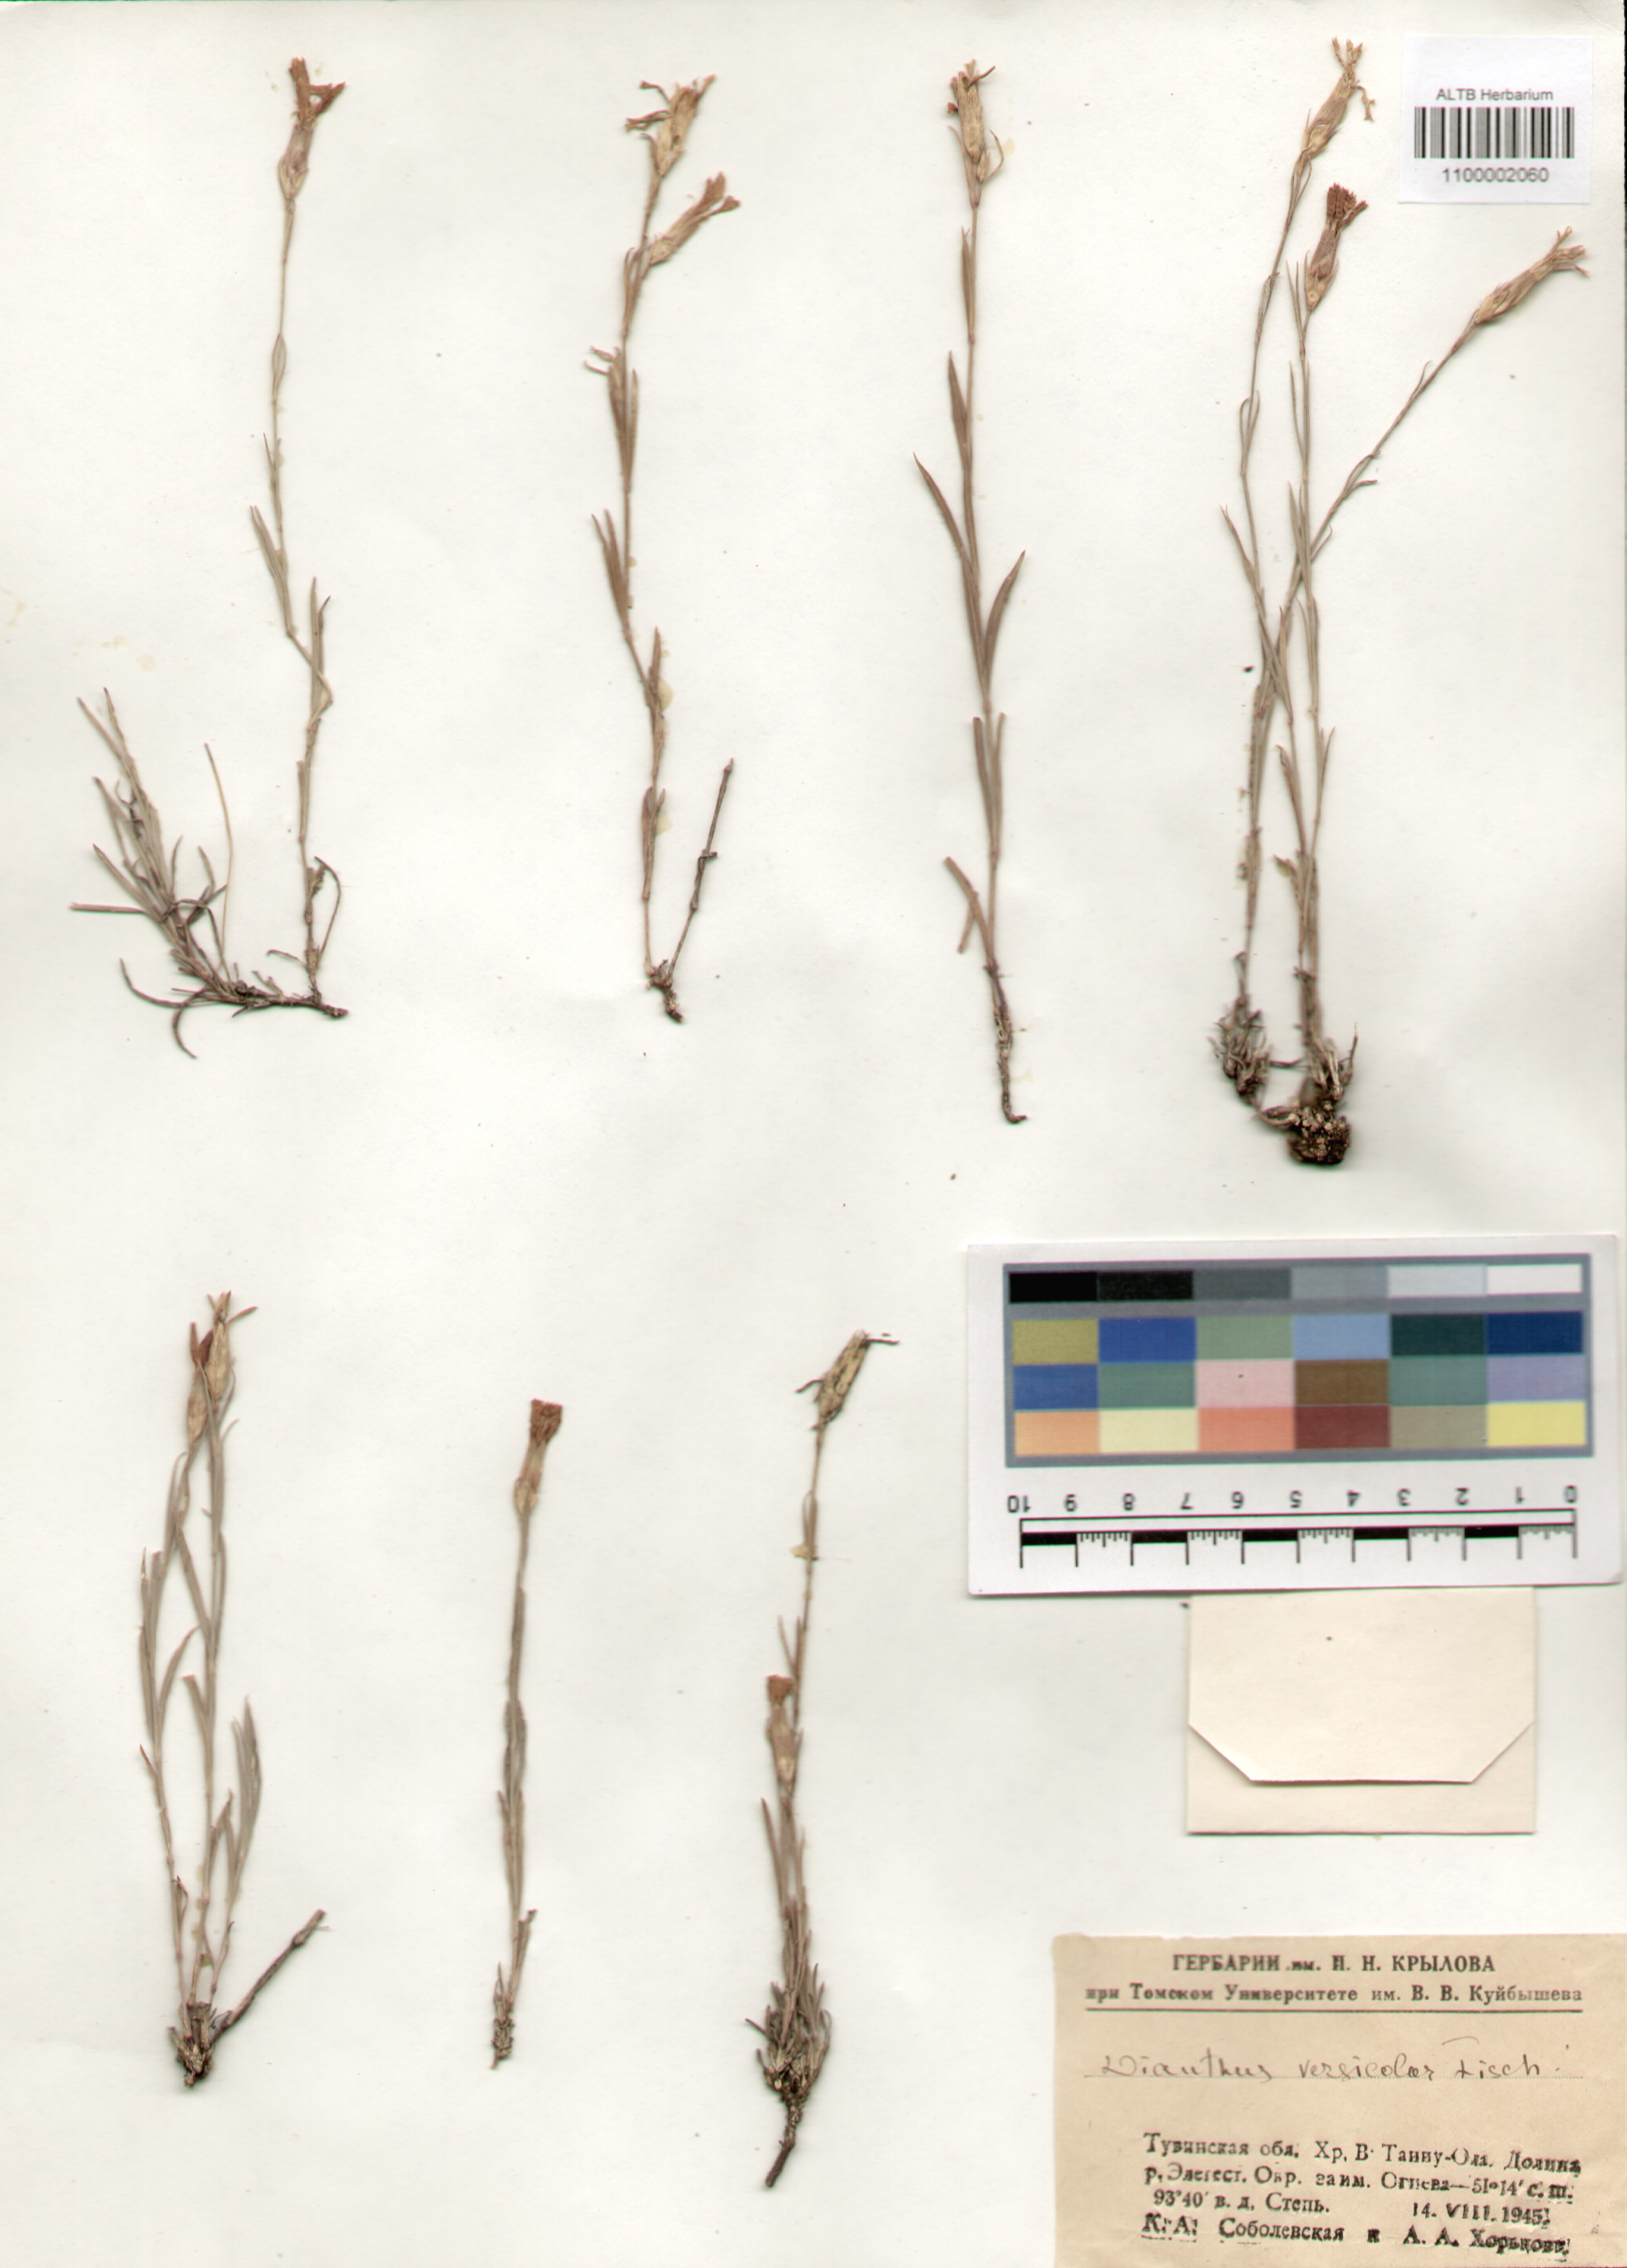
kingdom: Plantae
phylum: Tracheophyta
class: Magnoliopsida
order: Caryophyllales
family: Caryophyllaceae
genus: Dianthus
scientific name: Dianthus chinensis
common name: Rainbow pink
